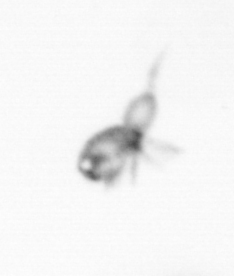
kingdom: Animalia
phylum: Arthropoda
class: Copepoda
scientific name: Copepoda
